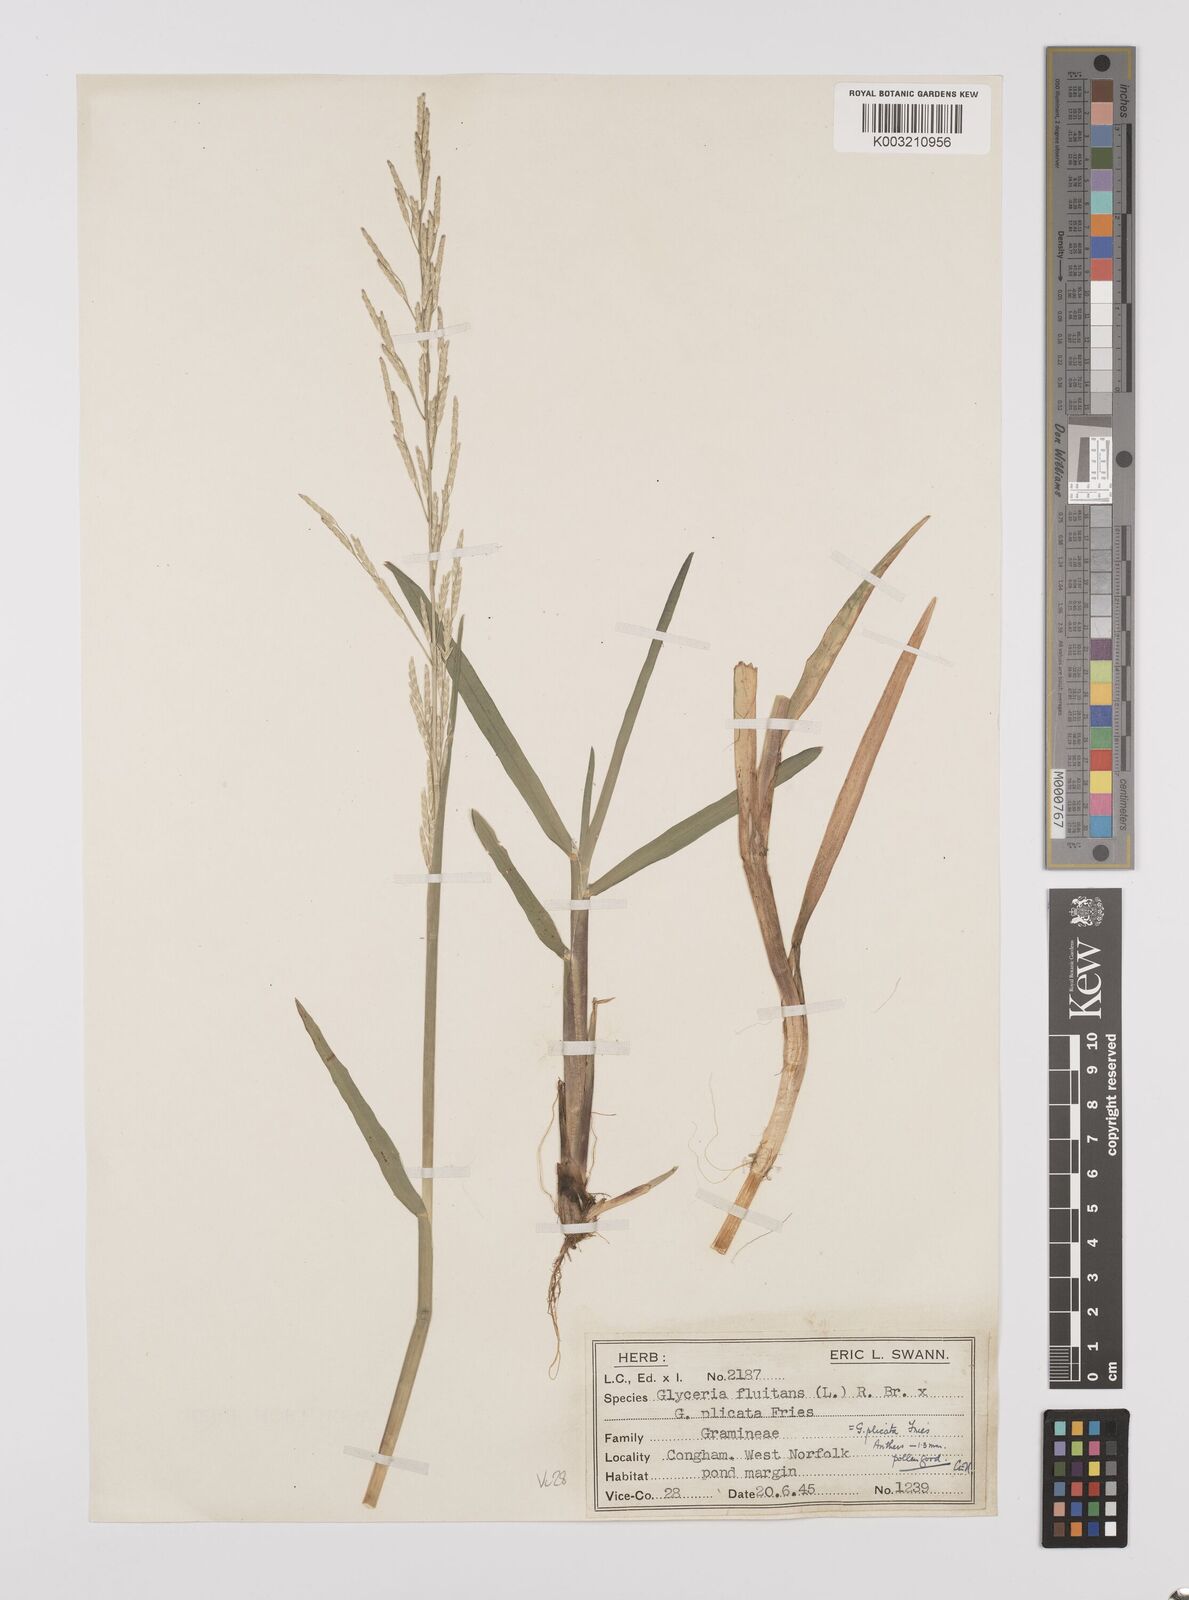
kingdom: Plantae
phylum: Tracheophyta
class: Liliopsida
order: Poales
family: Poaceae
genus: Glyceria
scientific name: Glyceria notata
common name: Plicate sweet-grass
